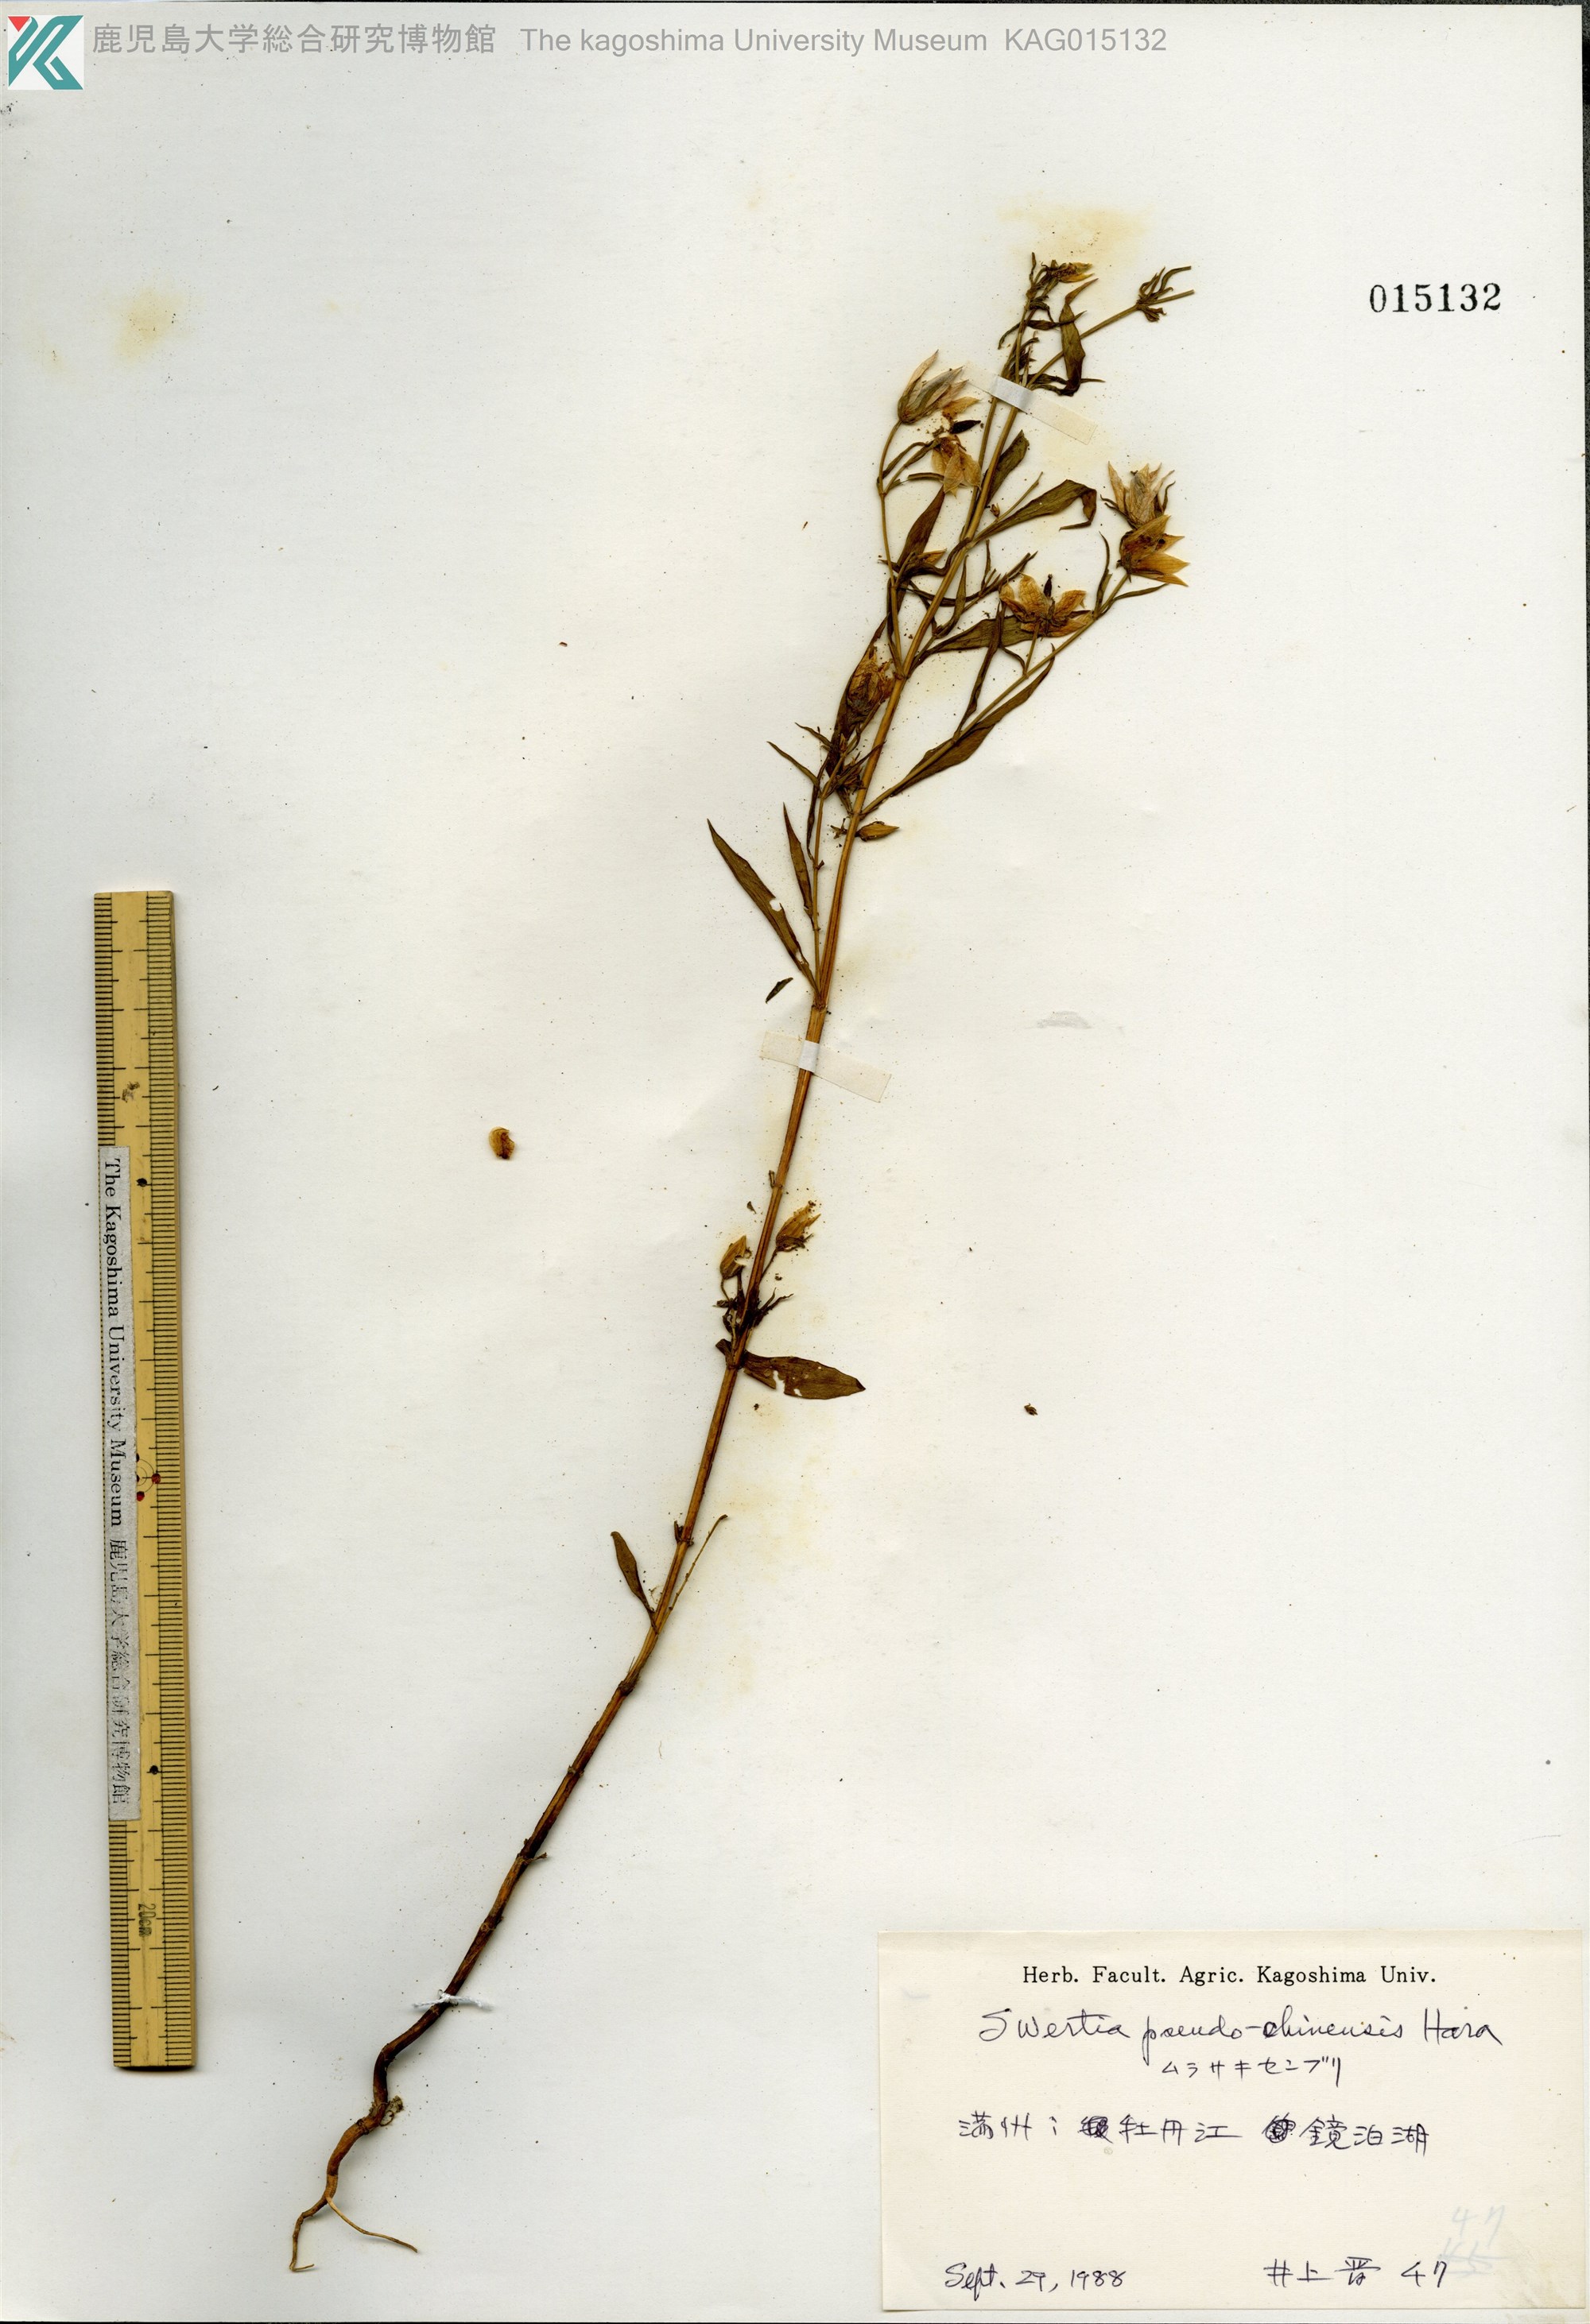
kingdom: Plantae
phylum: Tracheophyta
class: Magnoliopsida
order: Gentianales
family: Gentianaceae
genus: Swertia
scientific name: Swertia pseudochinensis
